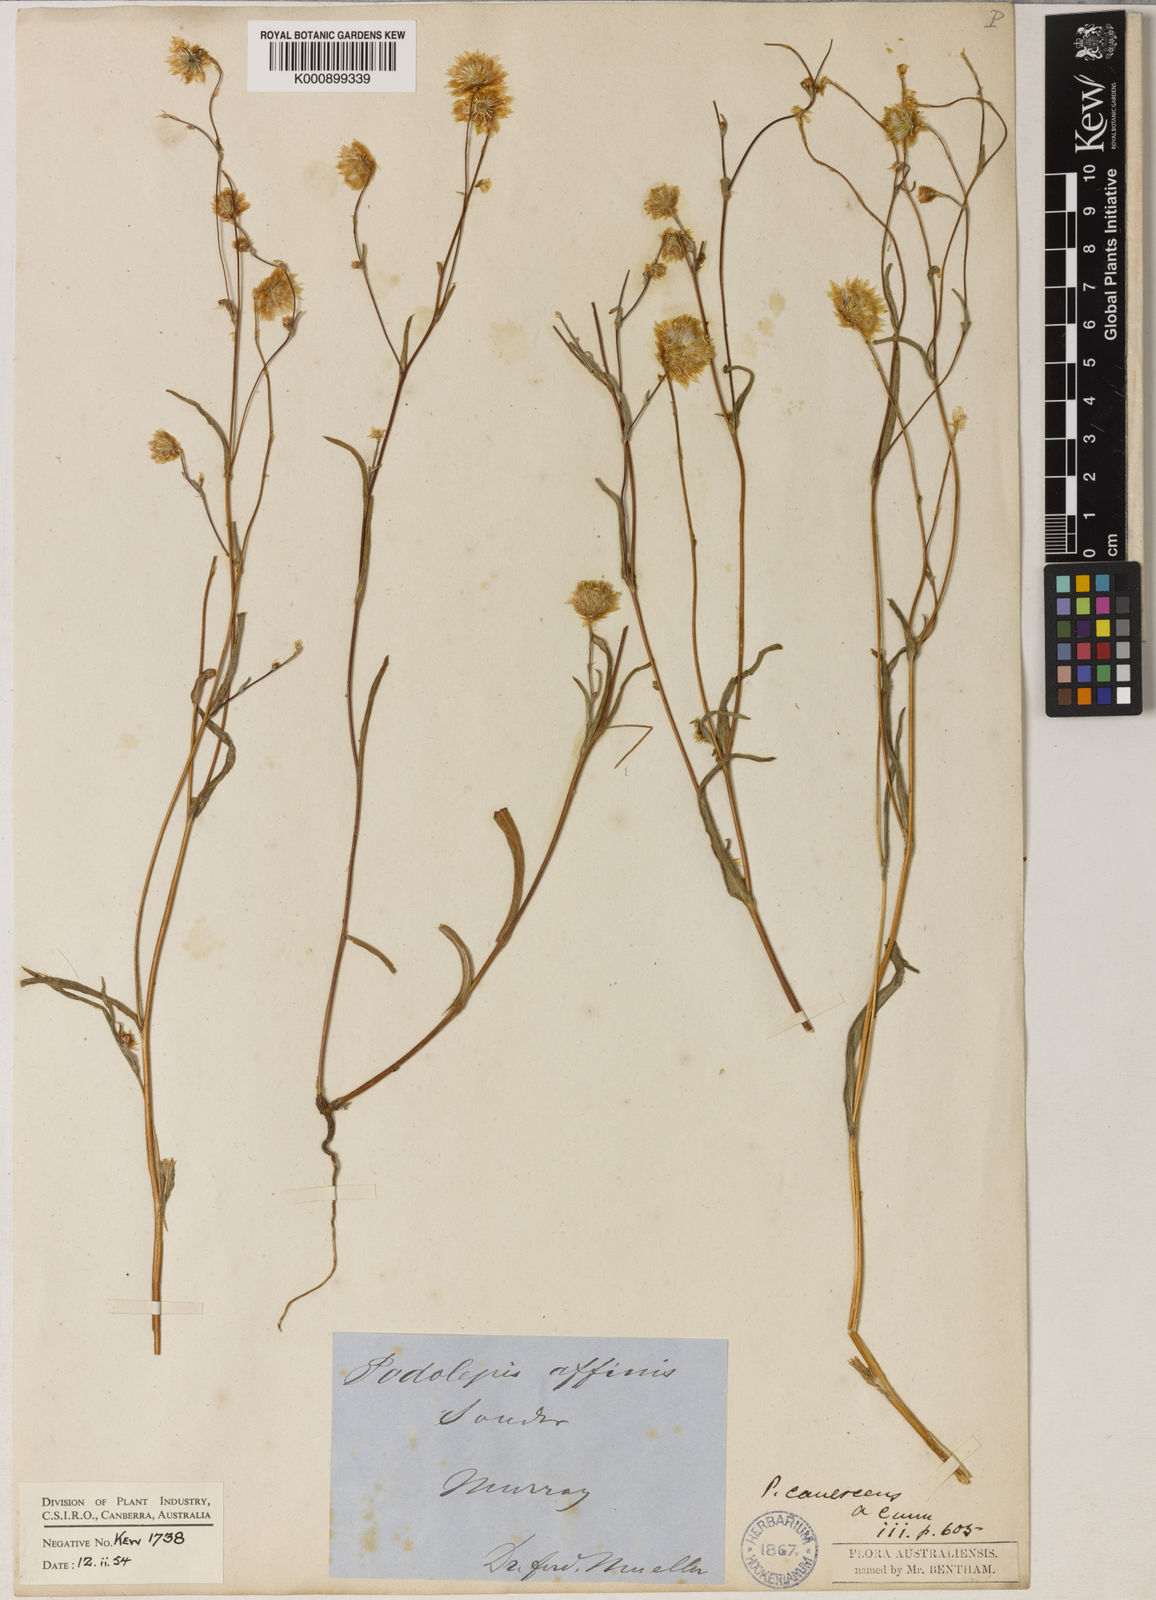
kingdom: Plantae
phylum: Tracheophyta
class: Magnoliopsida
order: Asterales
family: Asteraceae
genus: Podolepis
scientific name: Podolepis canescens
